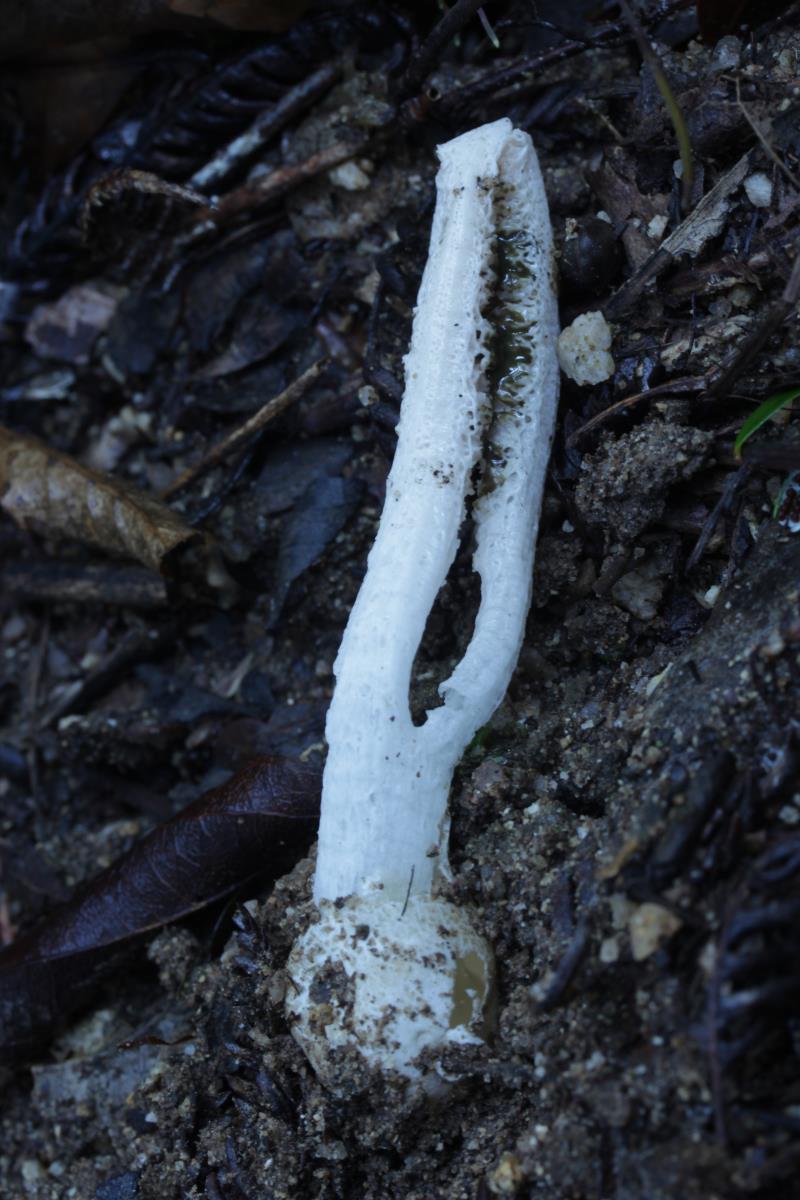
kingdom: Fungi
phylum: Basidiomycota
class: Agaricomycetes
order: Phallales
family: Phallaceae
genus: Pseudocolus
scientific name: Pseudocolus fusiformis
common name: Stinky squid
